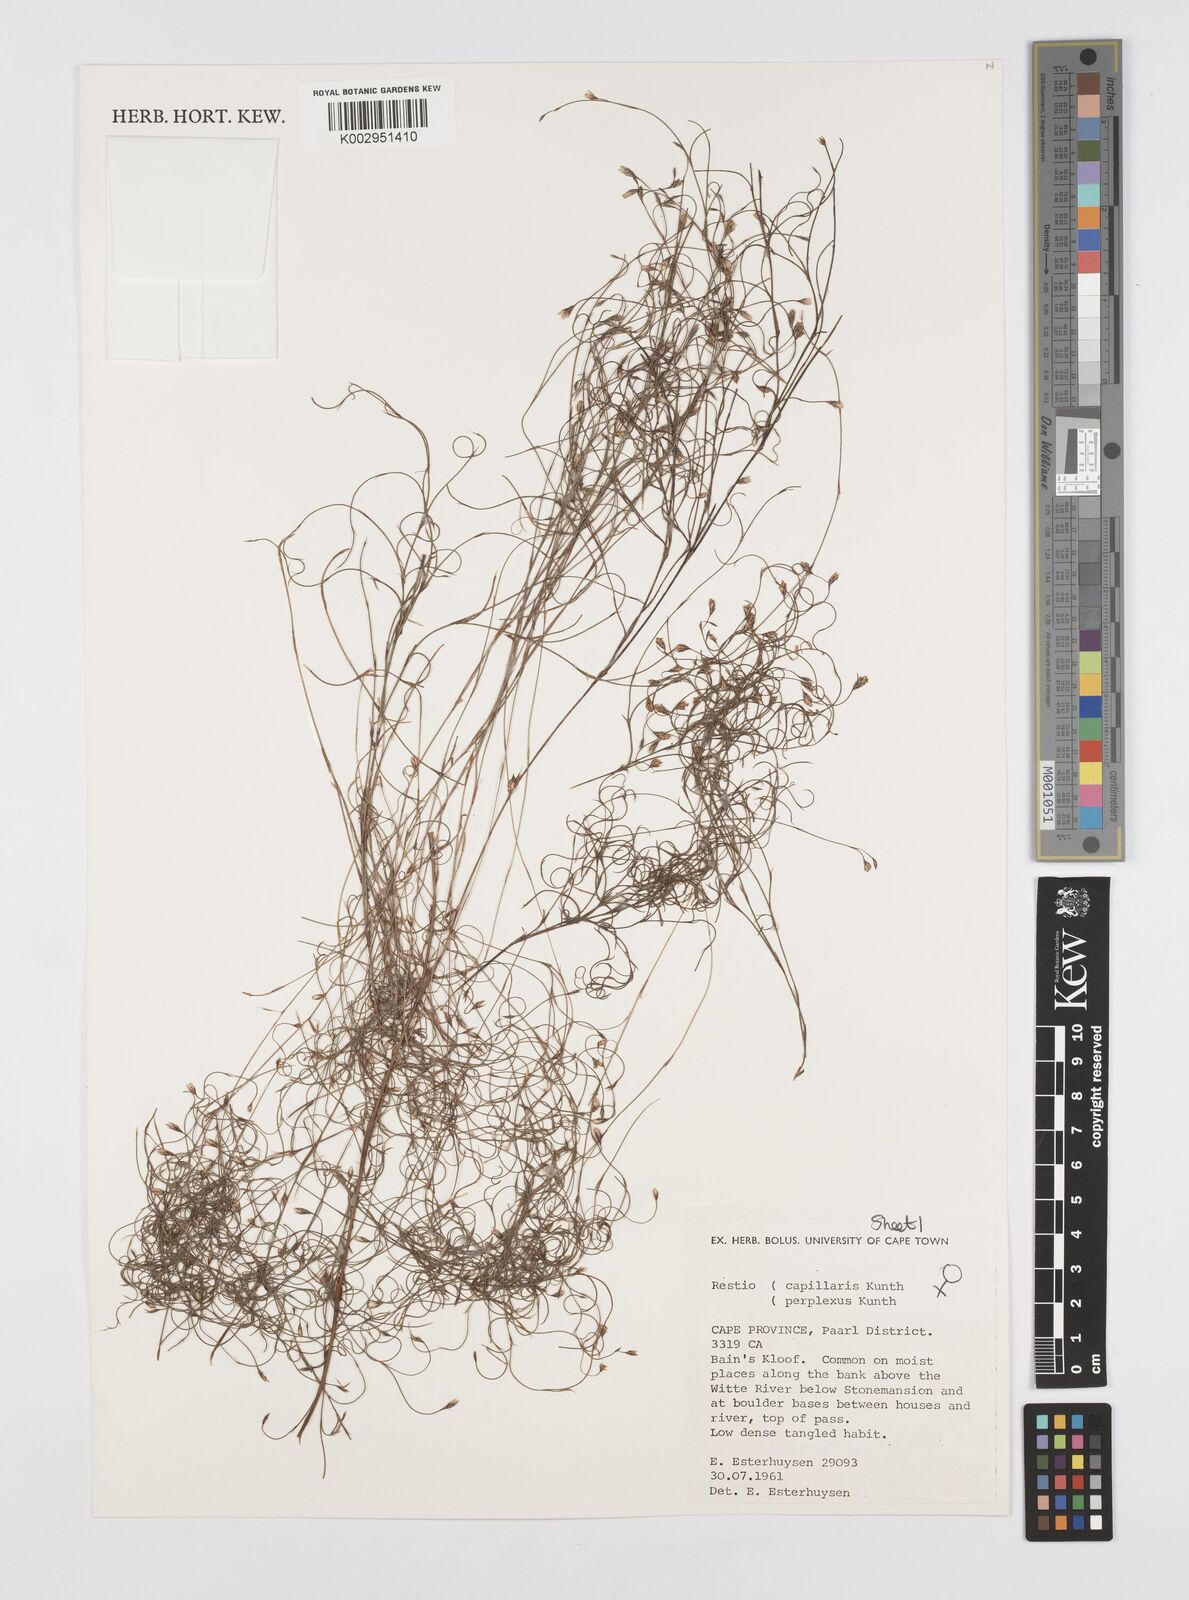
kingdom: Plantae
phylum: Tracheophyta
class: Liliopsida
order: Poales
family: Restionaceae
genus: Restio
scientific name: Restio perplexus
